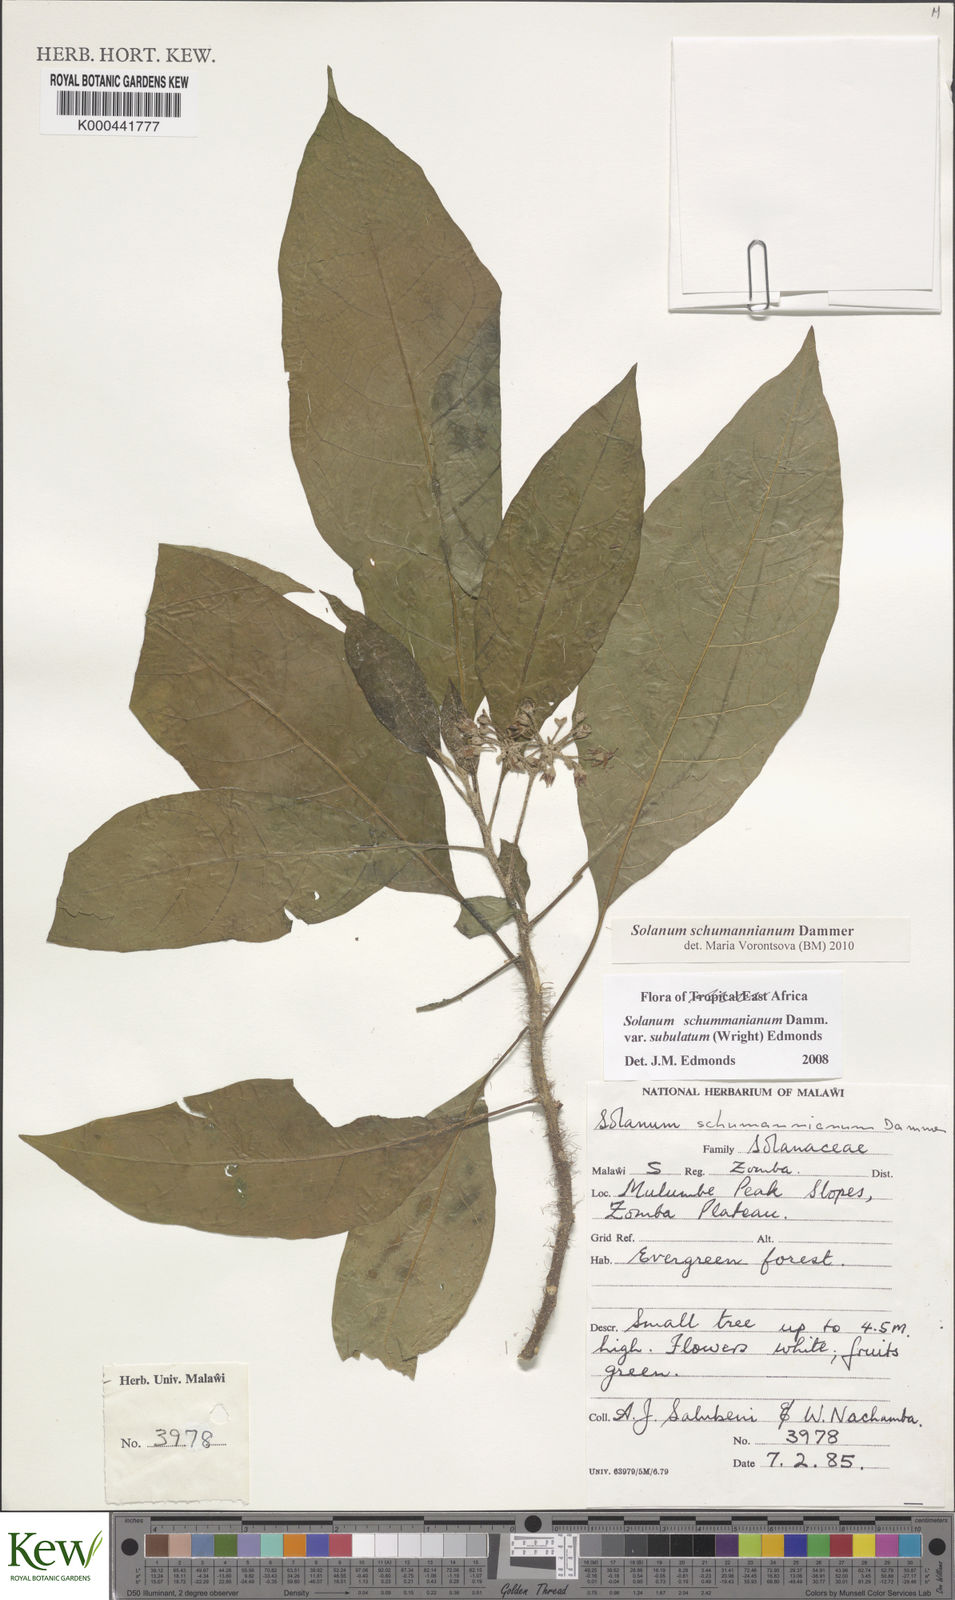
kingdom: Plantae
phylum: Tracheophyta
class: Magnoliopsida
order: Solanales
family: Solanaceae
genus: Solanum
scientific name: Solanum schumannianum
